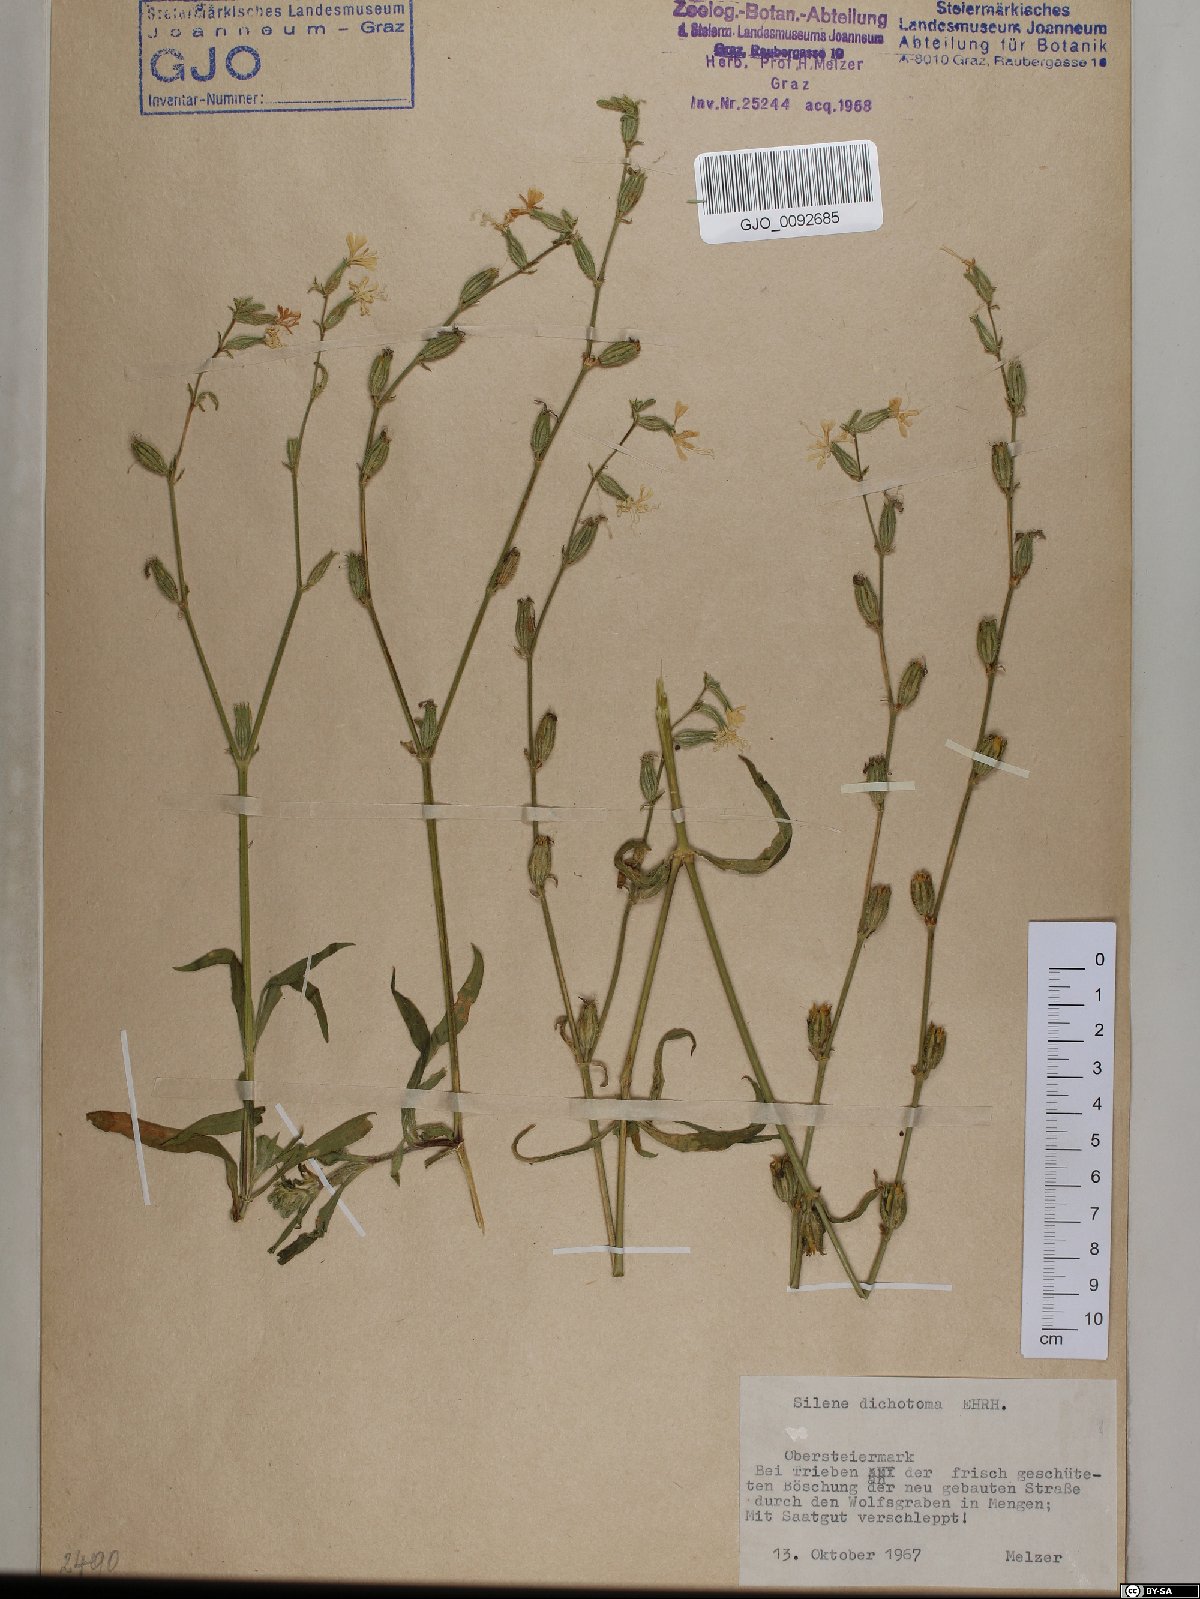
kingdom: Plantae
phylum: Tracheophyta
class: Magnoliopsida
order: Caryophyllales
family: Caryophyllaceae
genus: Silene
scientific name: Silene dichotoma
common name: Forked catchfly
